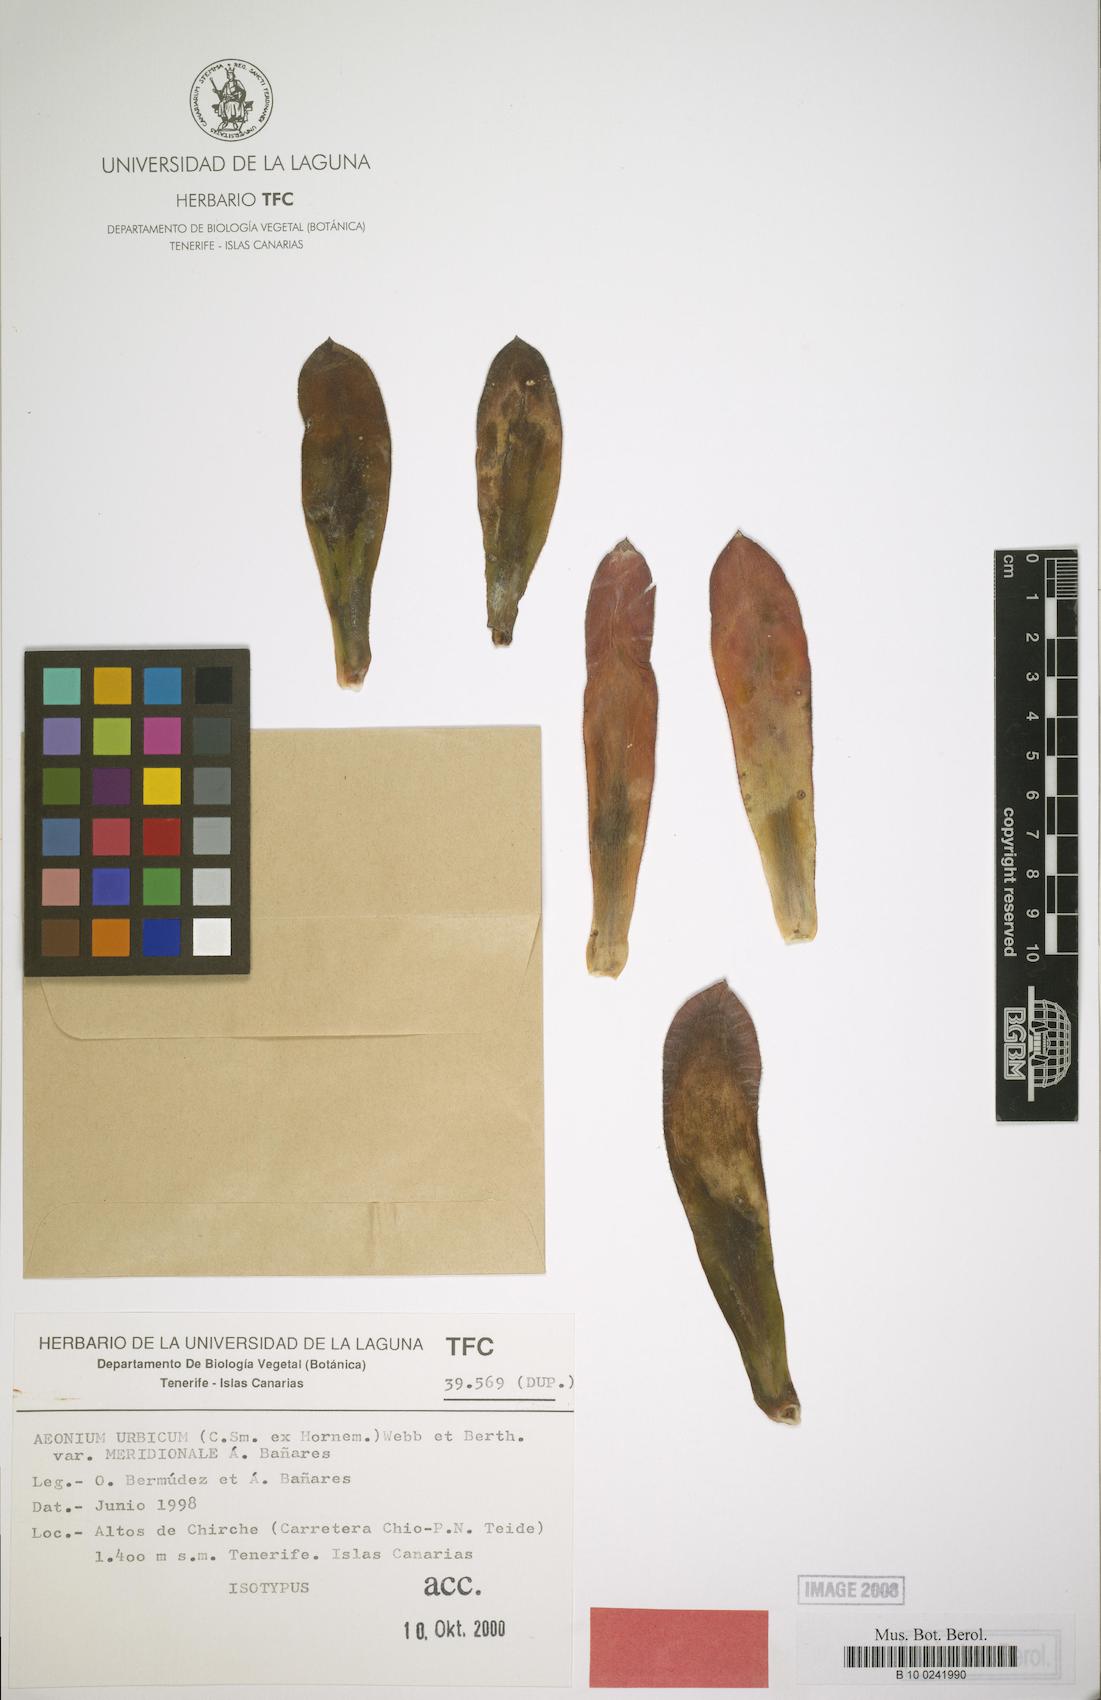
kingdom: Plantae
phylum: Tracheophyta
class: Magnoliopsida
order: Saxifragales
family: Crassulaceae
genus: Aeonium
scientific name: Aeonium urbicum
